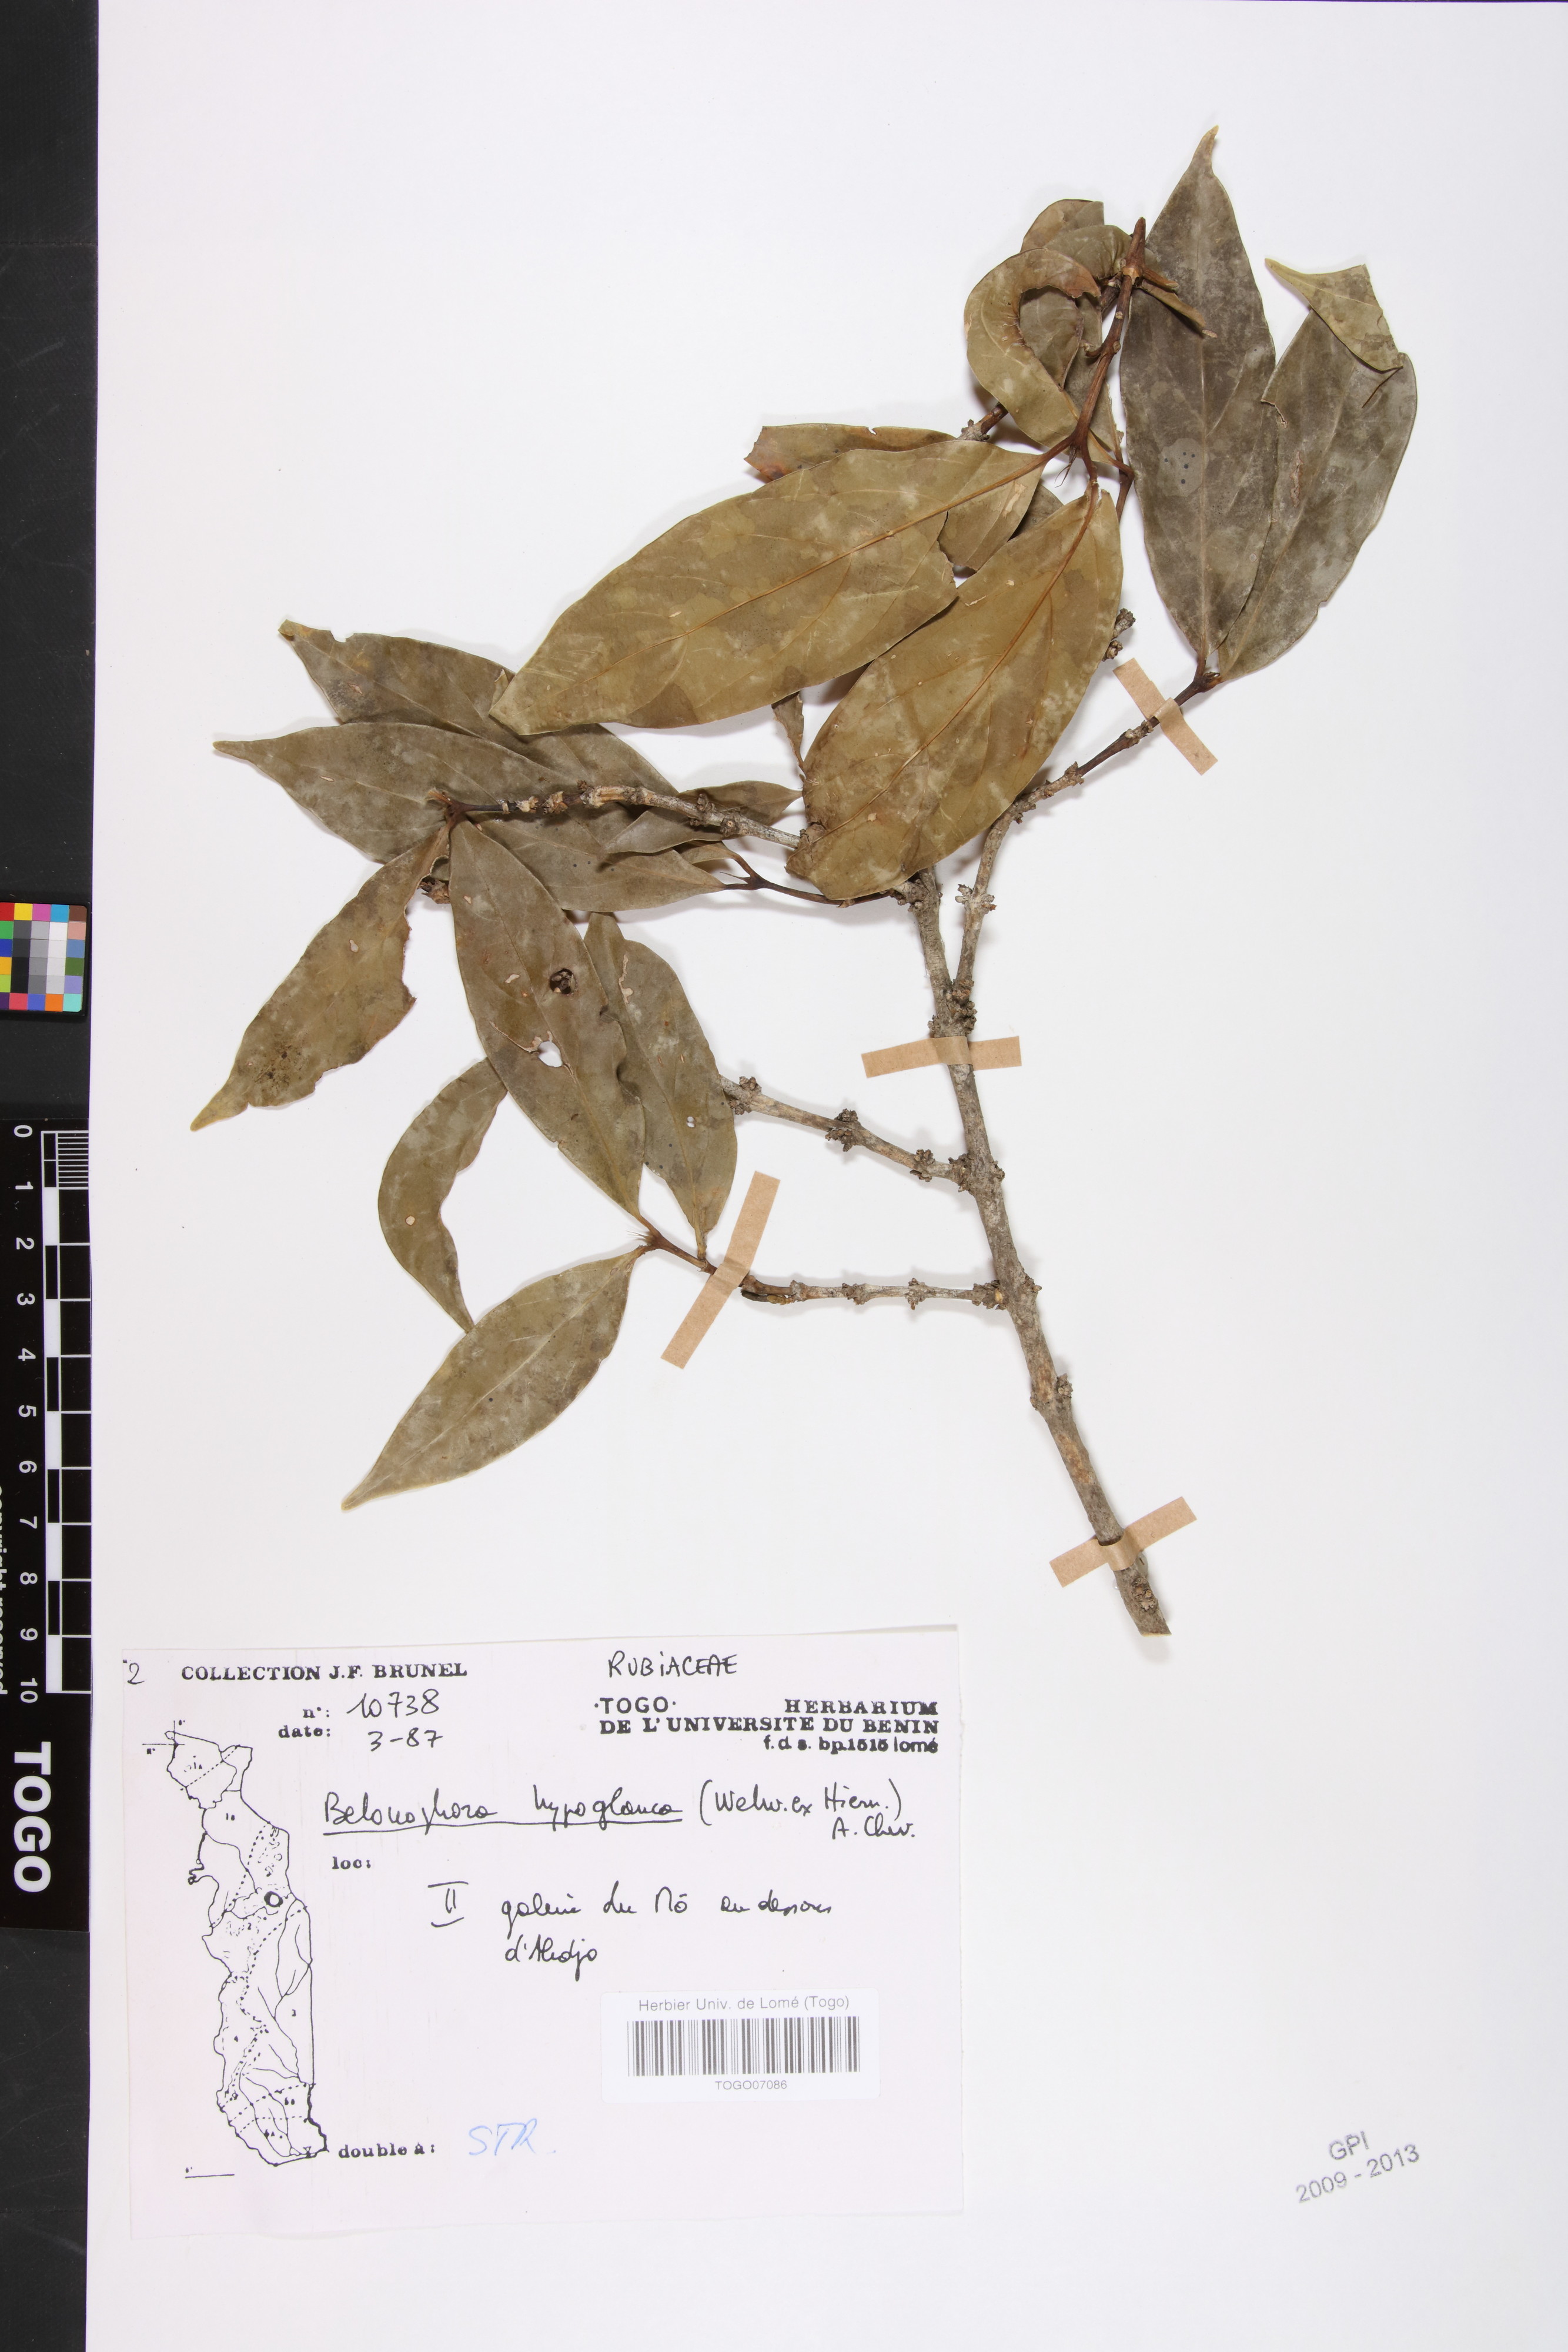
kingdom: Plantae
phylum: Tracheophyta
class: Magnoliopsida
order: Gentianales
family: Rubiaceae
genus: Belonophora
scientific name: Belonophora coffeoides
